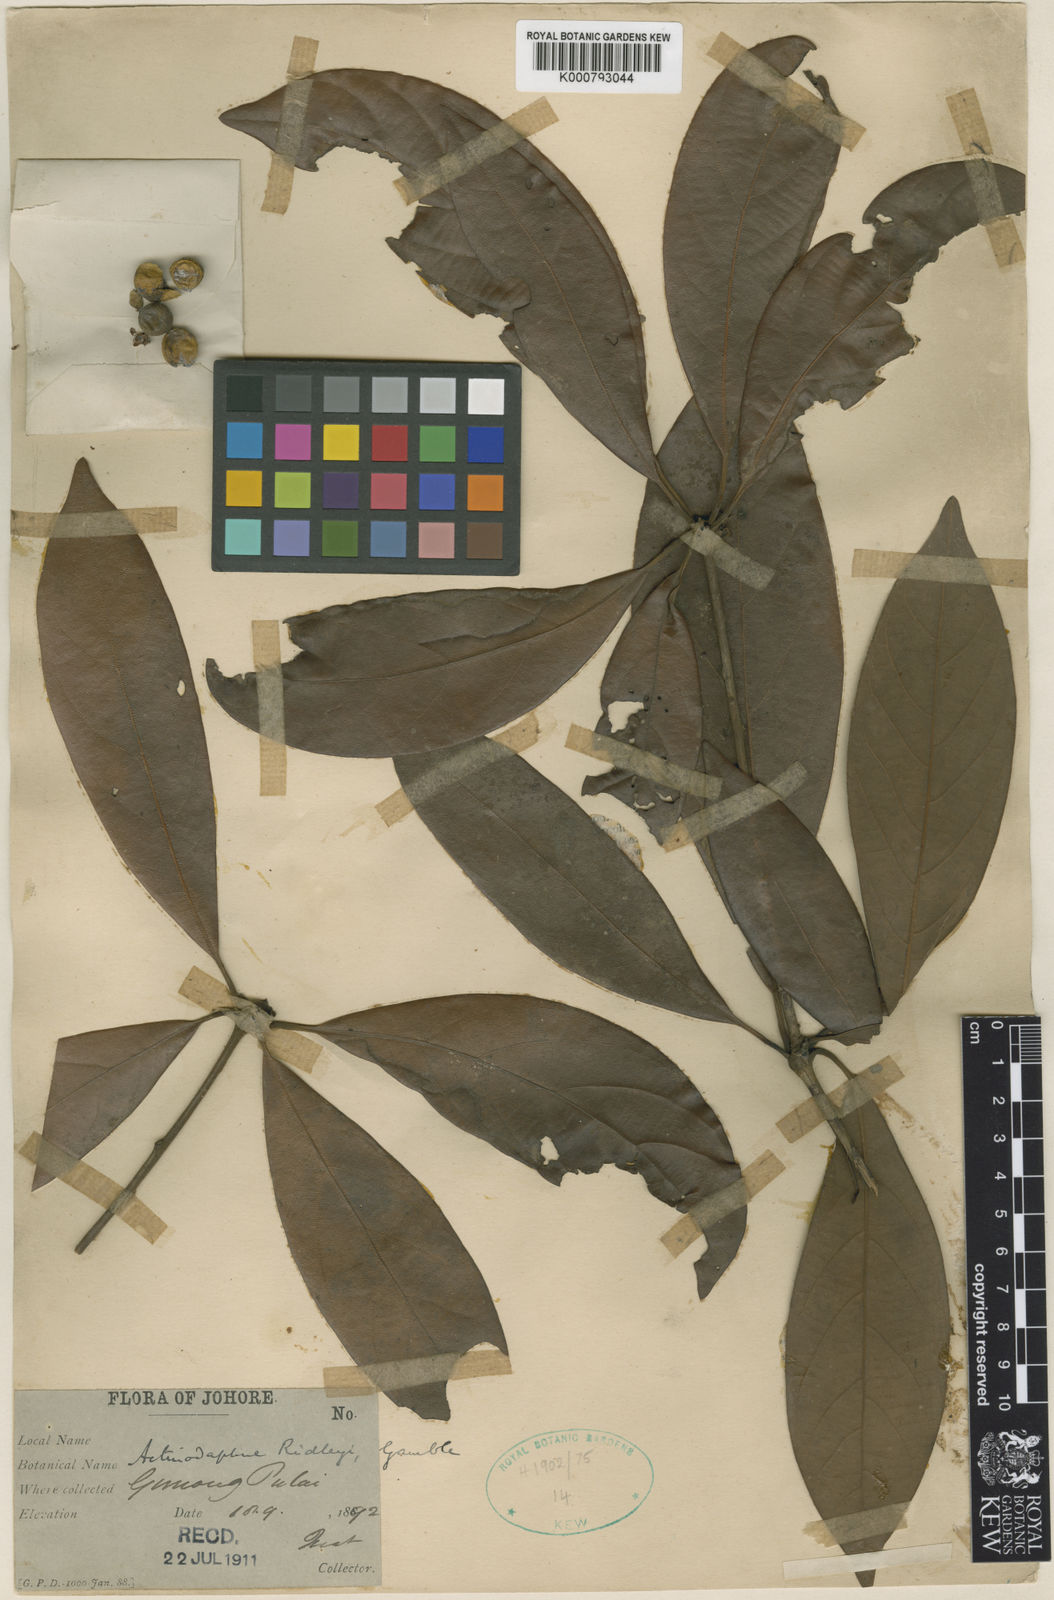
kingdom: Plantae
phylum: Tracheophyta
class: Magnoliopsida
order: Laurales
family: Lauraceae
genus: Actinodaphne
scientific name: Actinodaphne ridleyi
